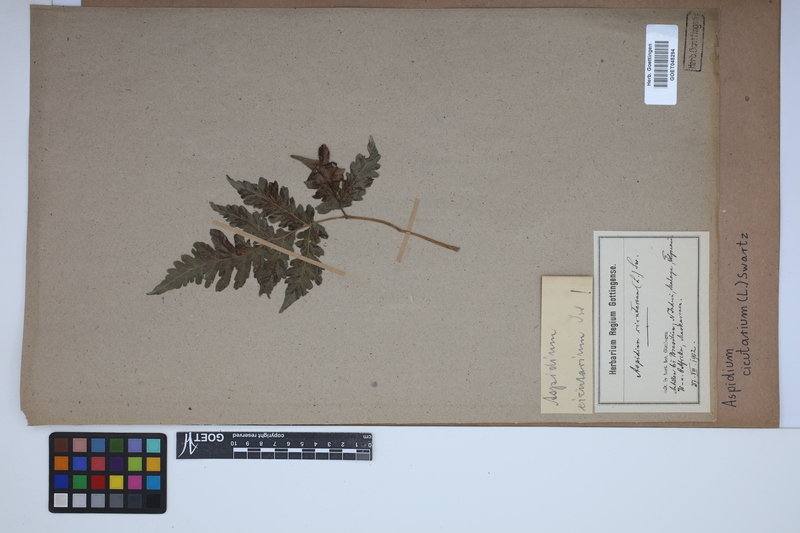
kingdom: Plantae
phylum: Tracheophyta
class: Polypodiopsida
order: Polypodiales
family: Tectariaceae
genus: Tectaria
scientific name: Tectaria cicutaria
